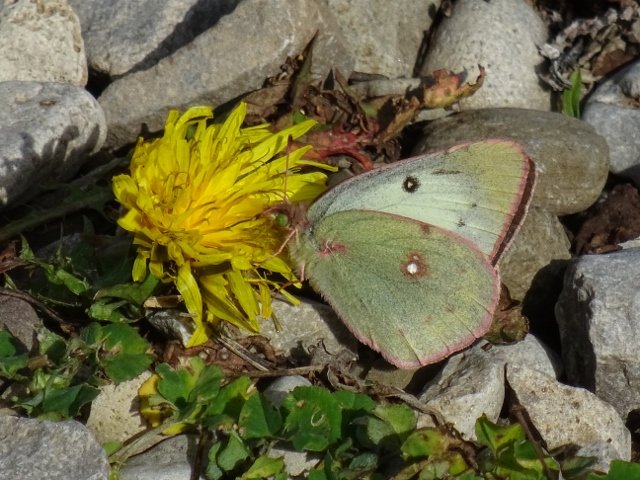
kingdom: Animalia
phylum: Arthropoda
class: Insecta
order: Lepidoptera
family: Pieridae
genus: Colias
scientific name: Colias philodice
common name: Clouded Sulphur
